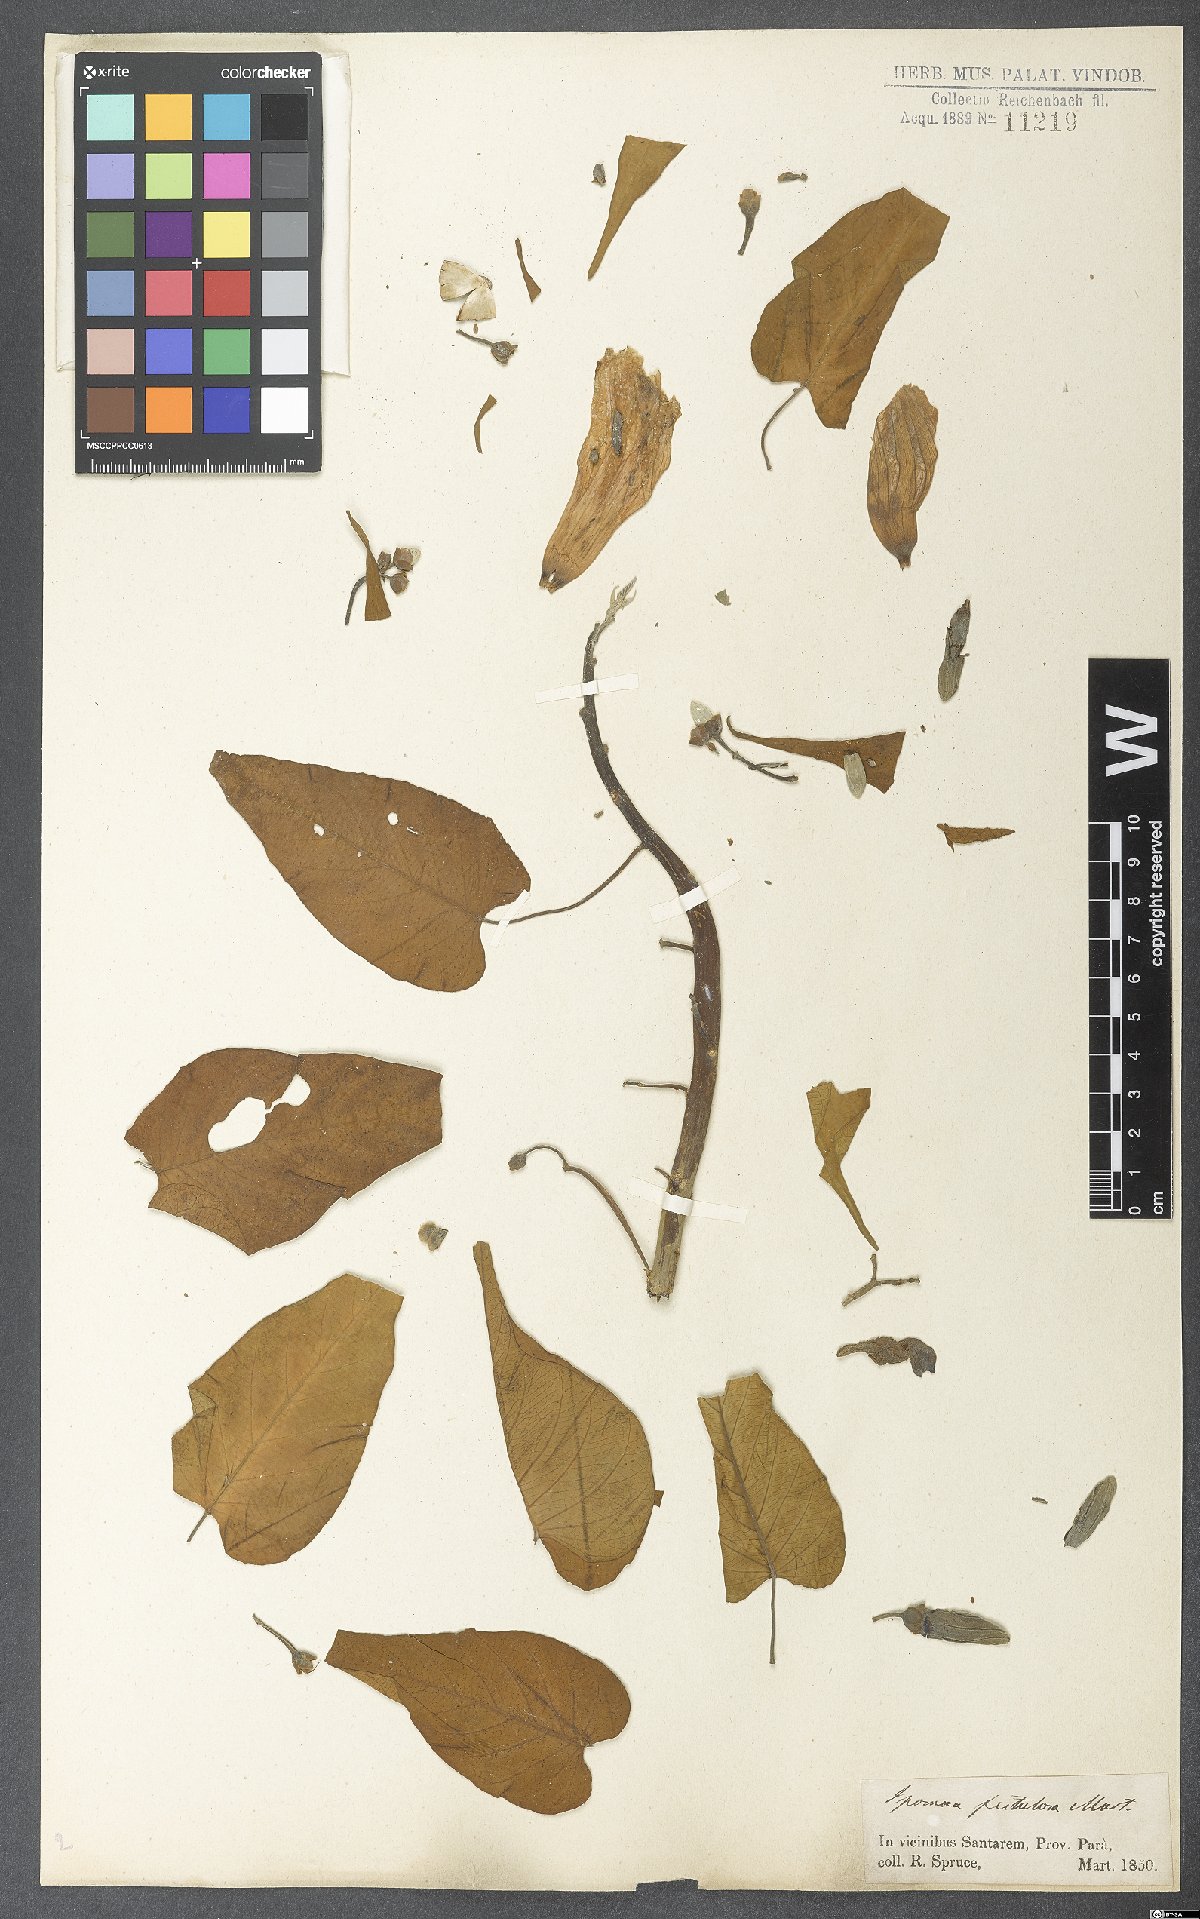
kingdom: Plantae
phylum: Tracheophyta
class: Magnoliopsida
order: Solanales
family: Convolvulaceae
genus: Ipomoea
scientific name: Ipomoea carnea
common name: Morning-glory
